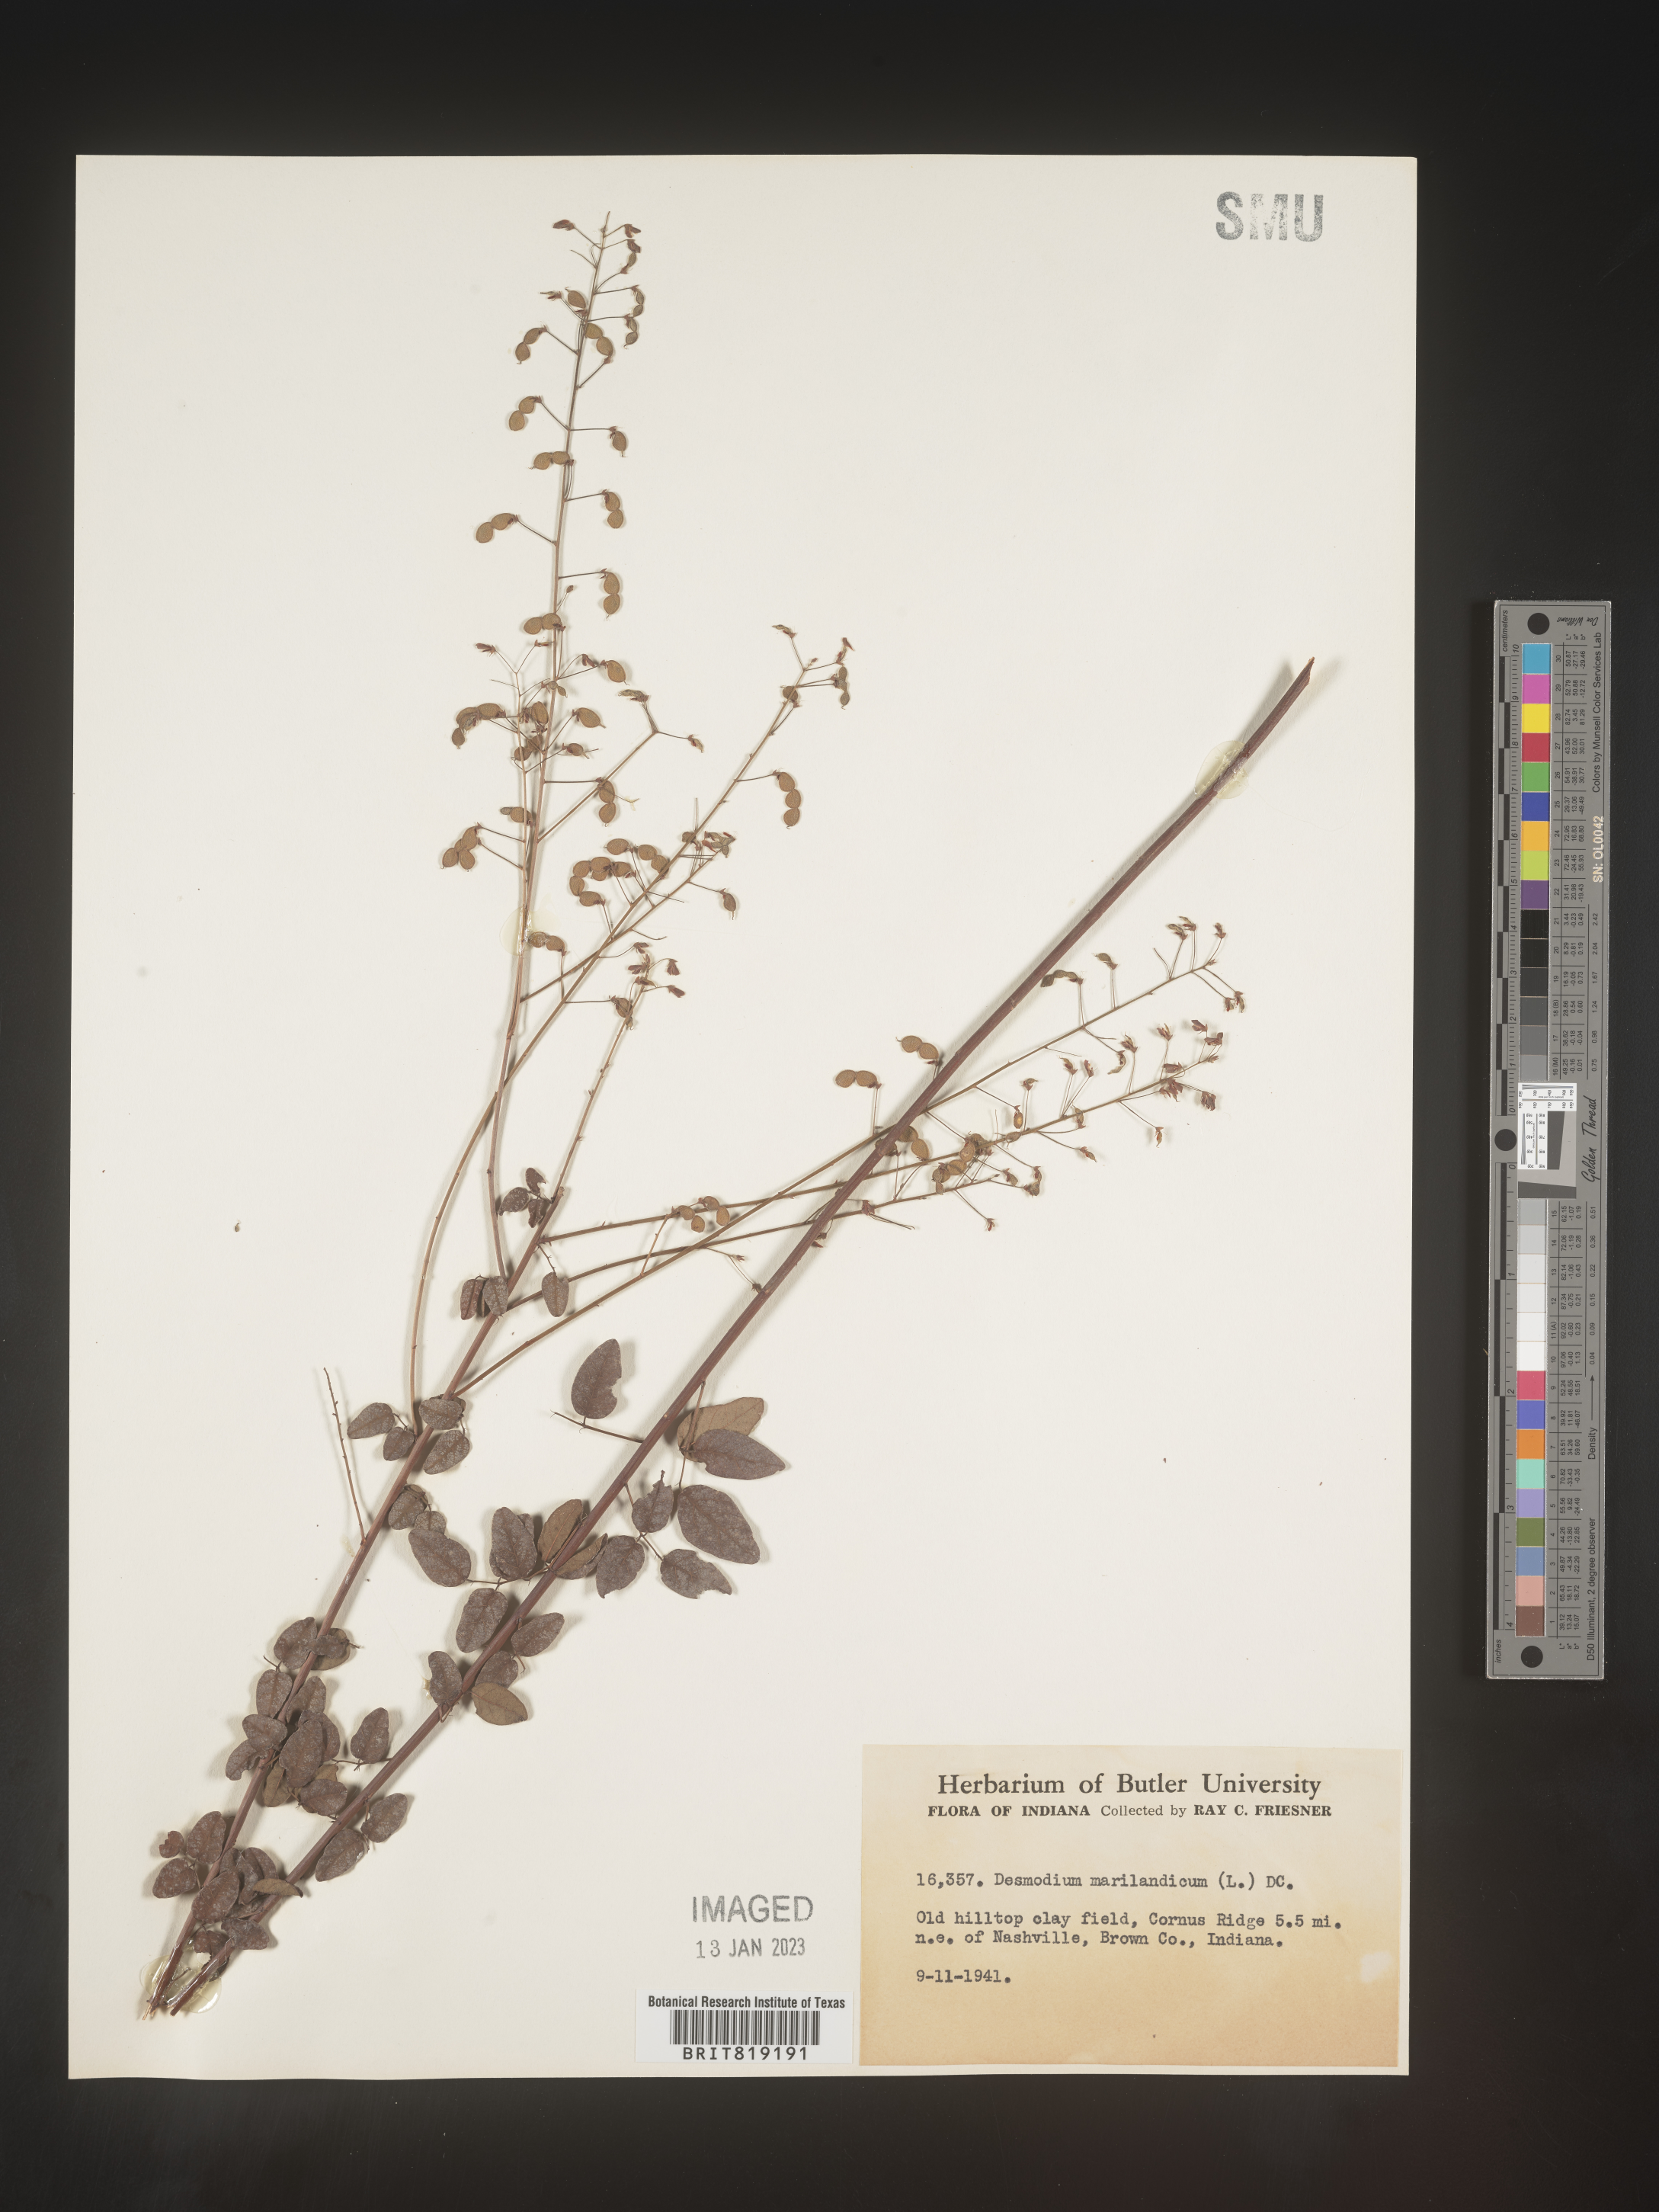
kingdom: Plantae
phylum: Tracheophyta
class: Magnoliopsida
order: Fabales
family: Fabaceae
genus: Desmodium
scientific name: Desmodium marilandicum
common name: Maryland tick-trefoil
